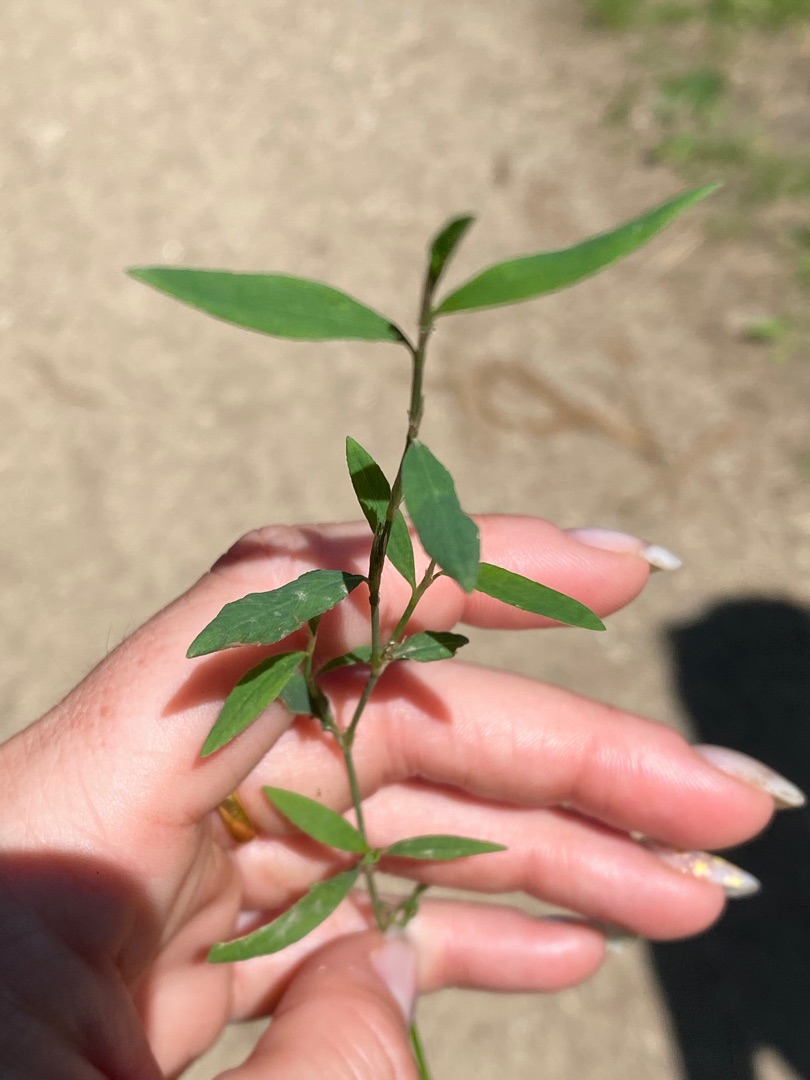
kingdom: Plantae
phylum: Tracheophyta
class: Magnoliopsida
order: Caryophyllales
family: Polygonaceae
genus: Polygonum
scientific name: Polygonum aviculare
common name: Vej-pileurt (underart)
